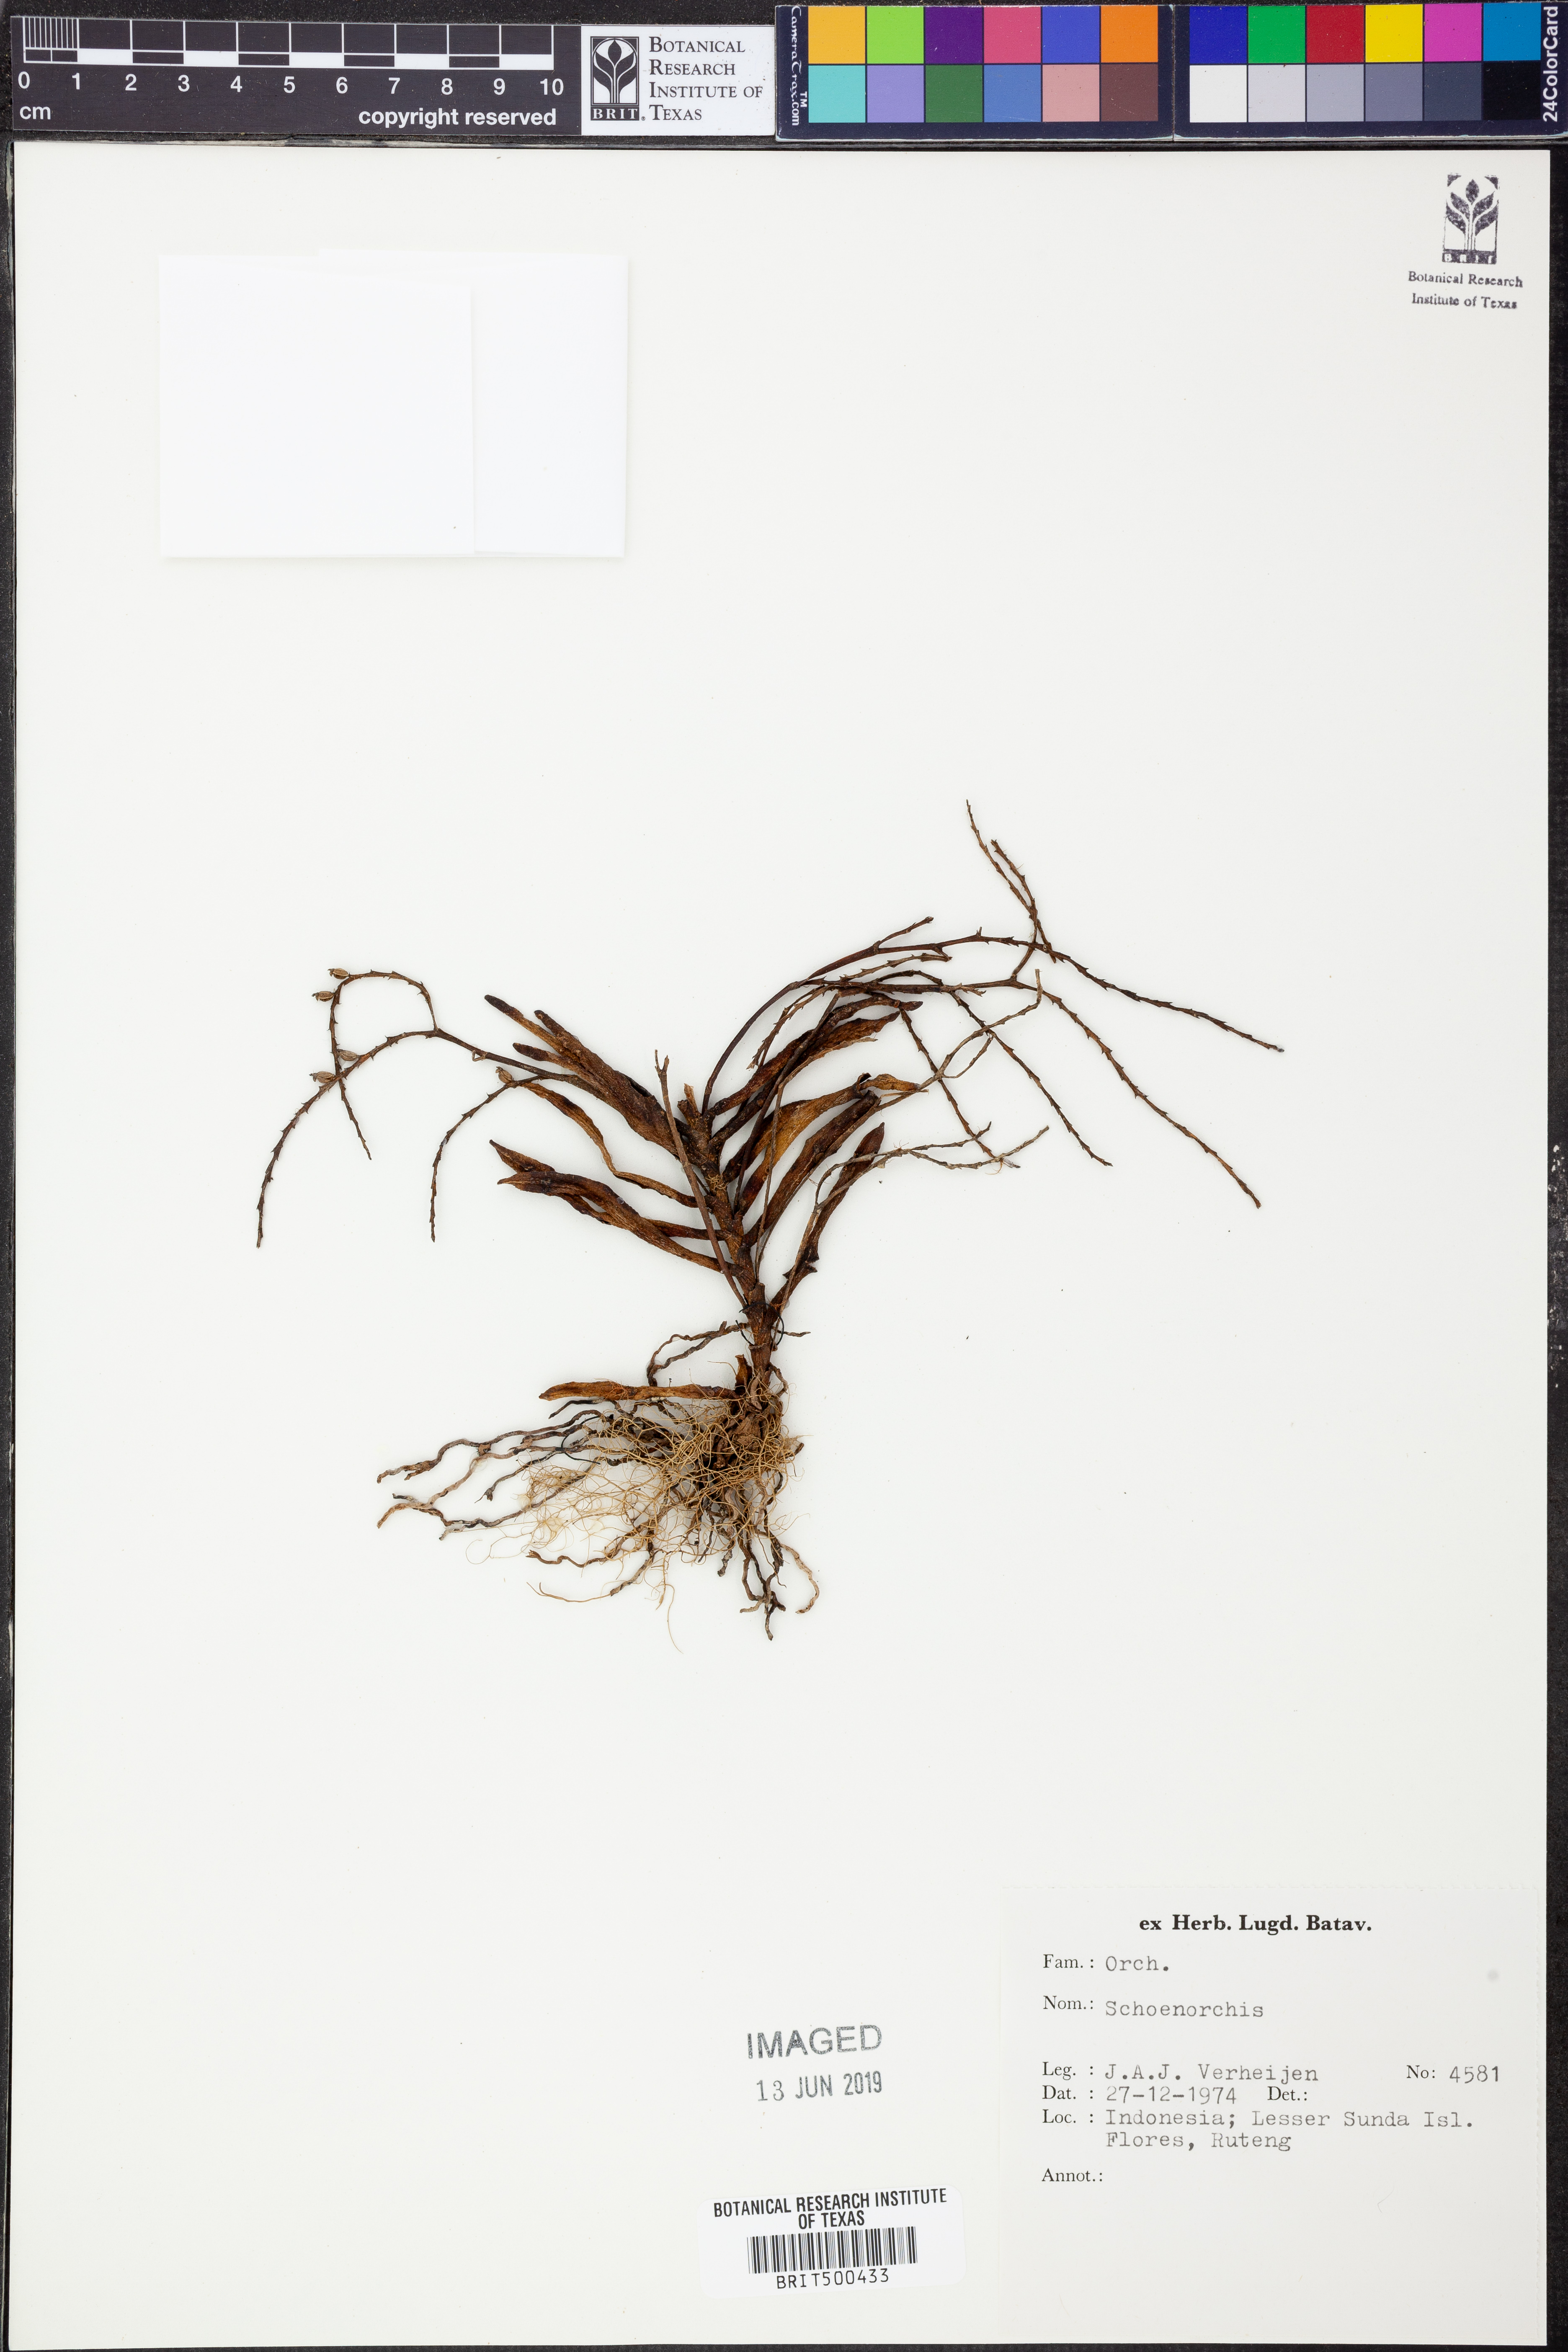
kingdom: Plantae
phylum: Tracheophyta
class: Liliopsida
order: Asparagales
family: Orchidaceae
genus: Schoenorchis
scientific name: Schoenorchis
